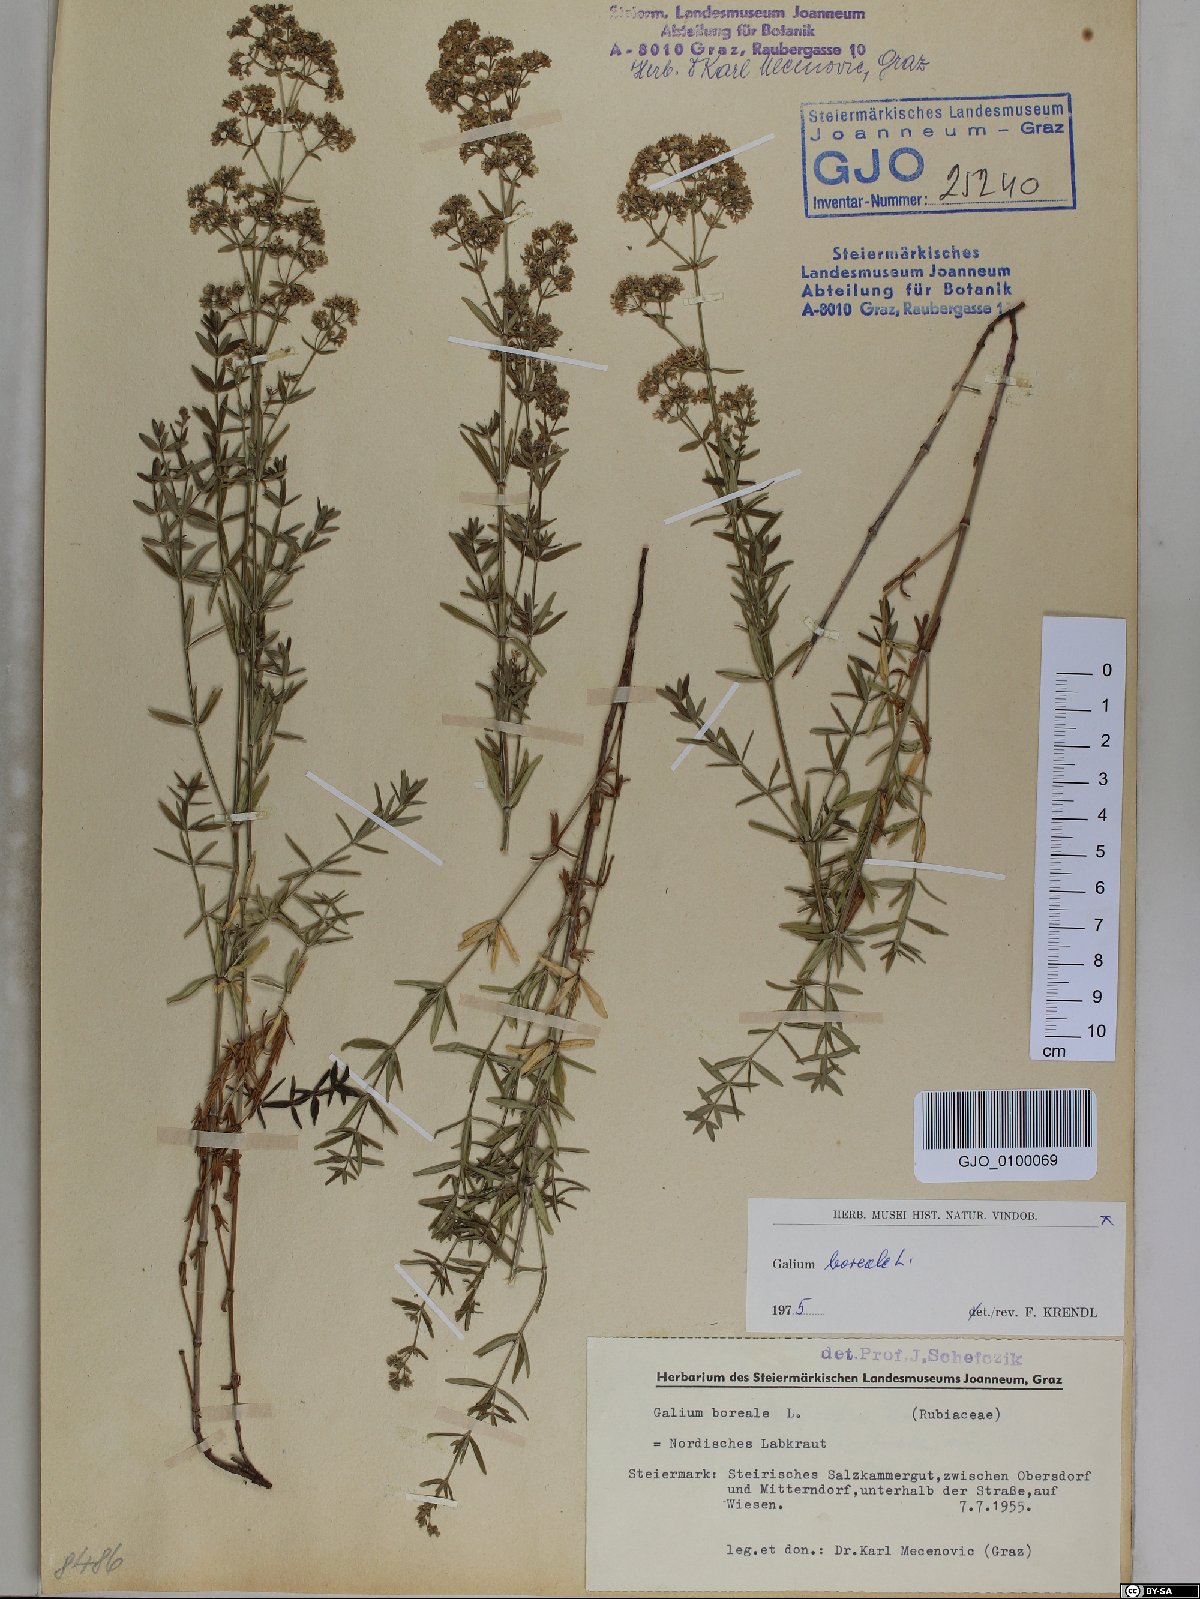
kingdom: Plantae
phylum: Tracheophyta
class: Magnoliopsida
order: Gentianales
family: Rubiaceae
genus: Galium
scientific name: Galium boreale
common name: Northern bedstraw
